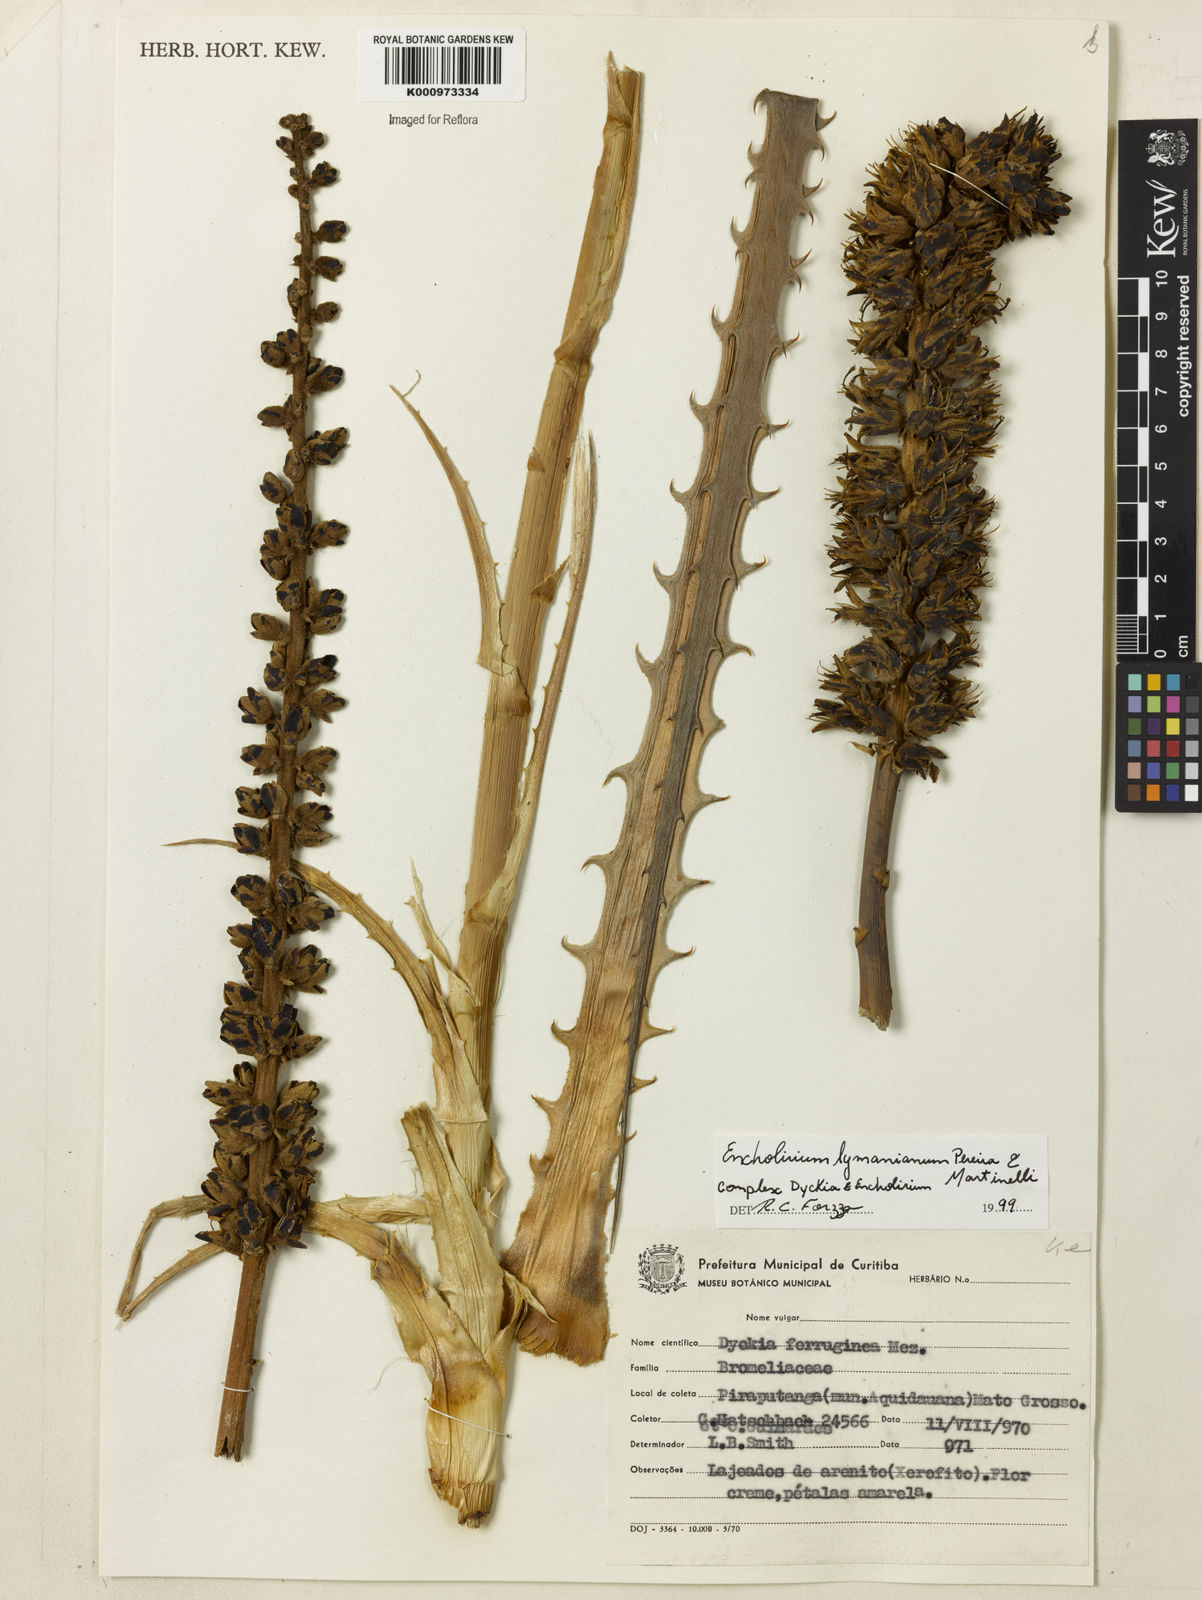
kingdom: Plantae
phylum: Tracheophyta
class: Liliopsida
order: Poales
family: Bromeliaceae
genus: Encholirium
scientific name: Encholirium lymanianum
